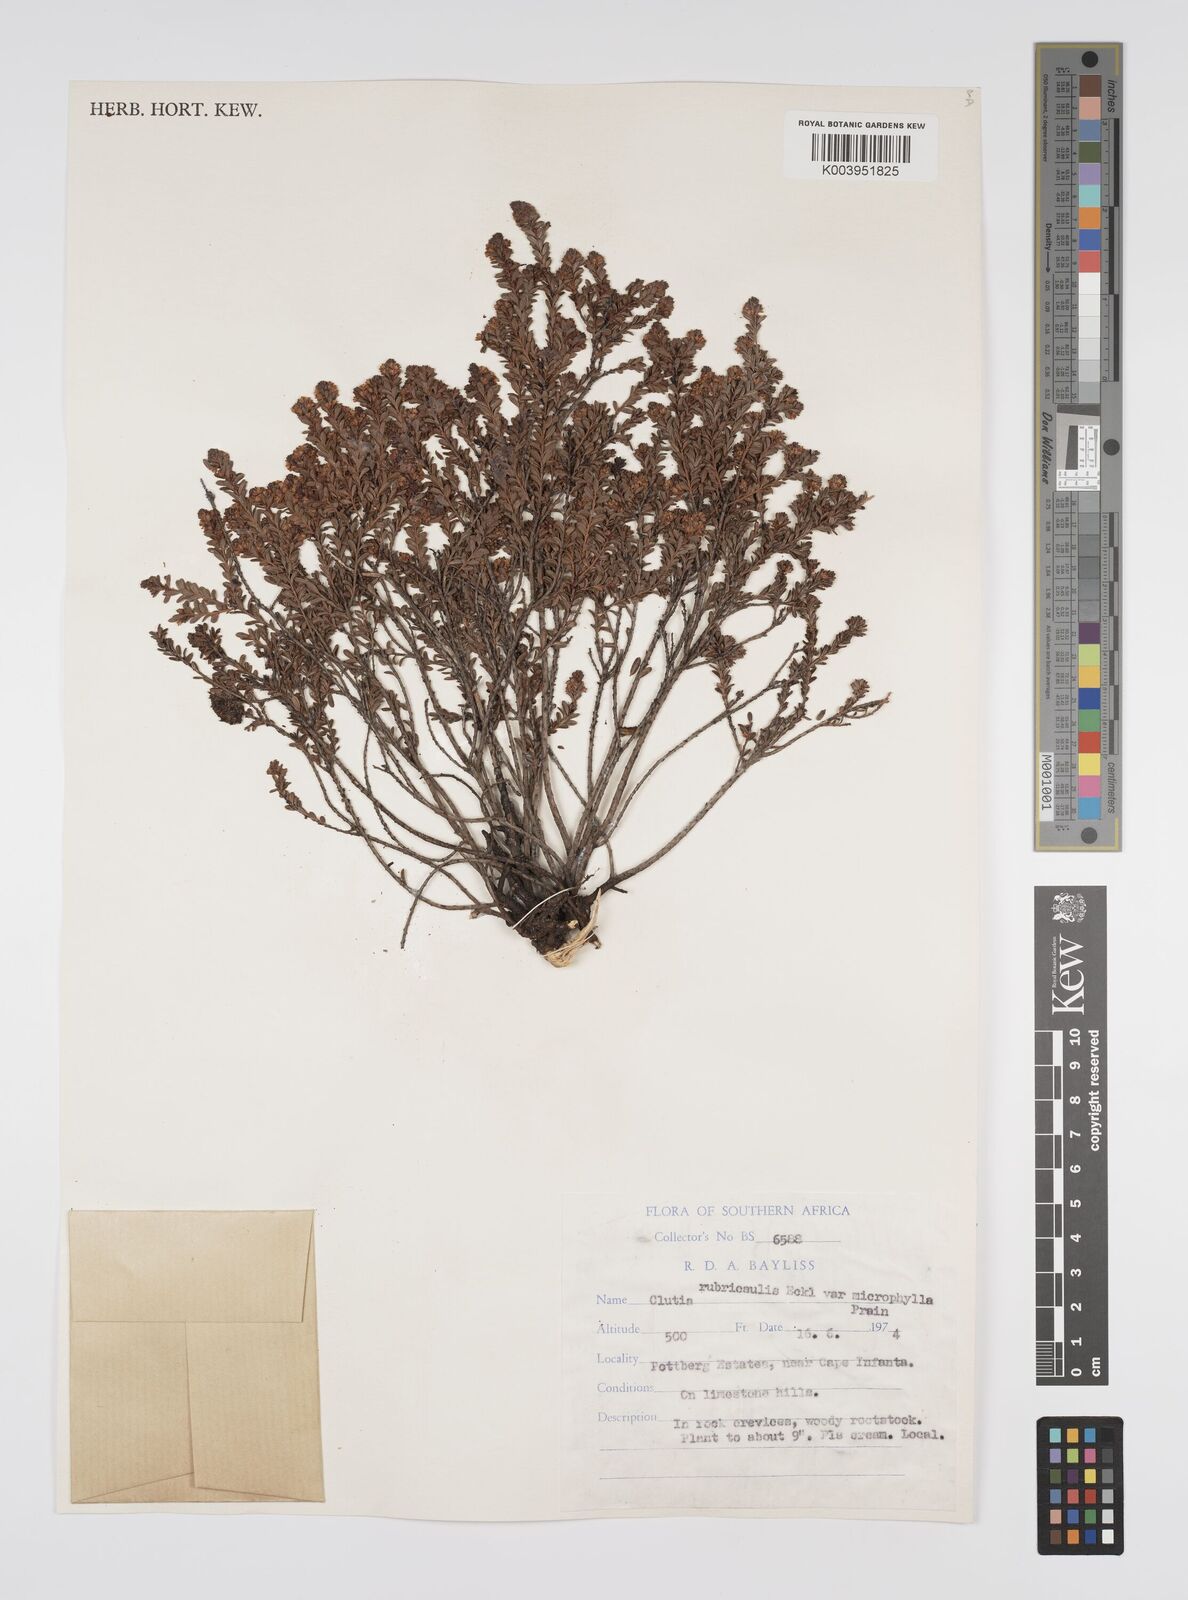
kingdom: Plantae
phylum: Tracheophyta
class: Magnoliopsida
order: Malpighiales
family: Peraceae
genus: Clutia
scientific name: Clutia rubricaulis
